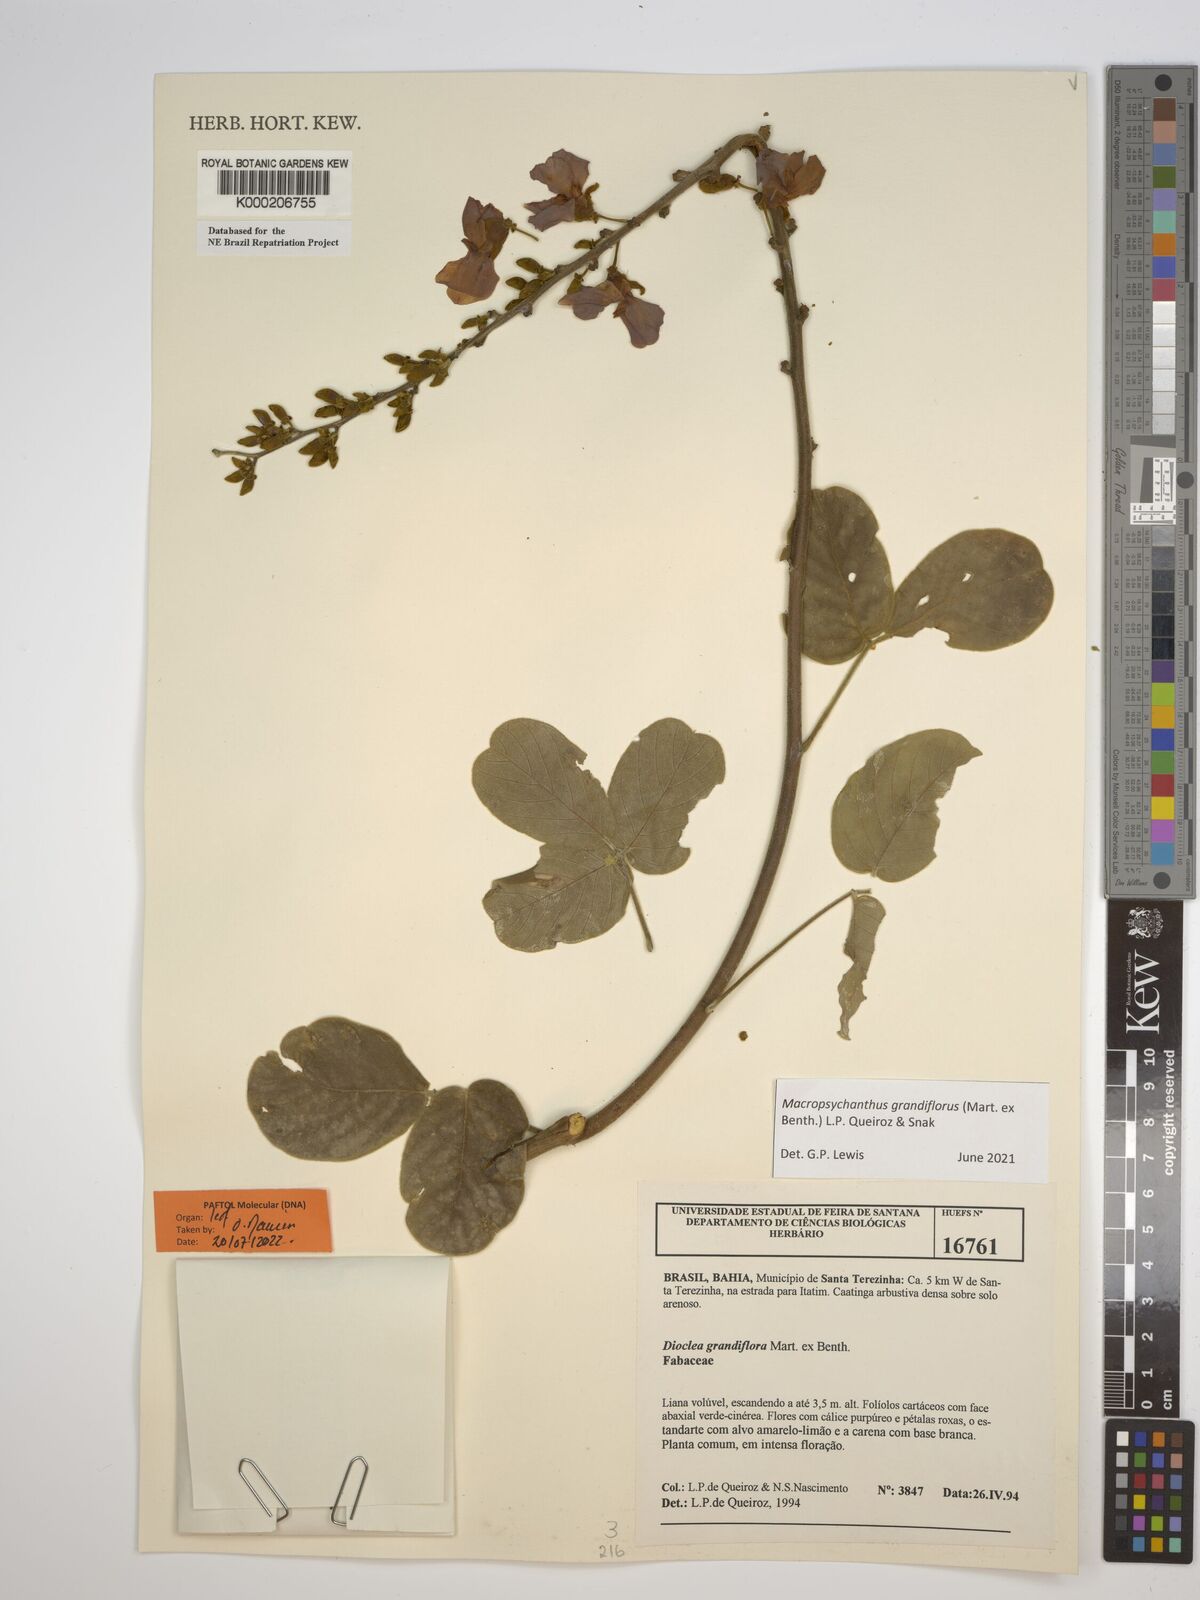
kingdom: Plantae
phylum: Tracheophyta
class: Magnoliopsida
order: Fabales
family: Fabaceae
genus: Macropsychanthus
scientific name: Macropsychanthus grandiflorus
